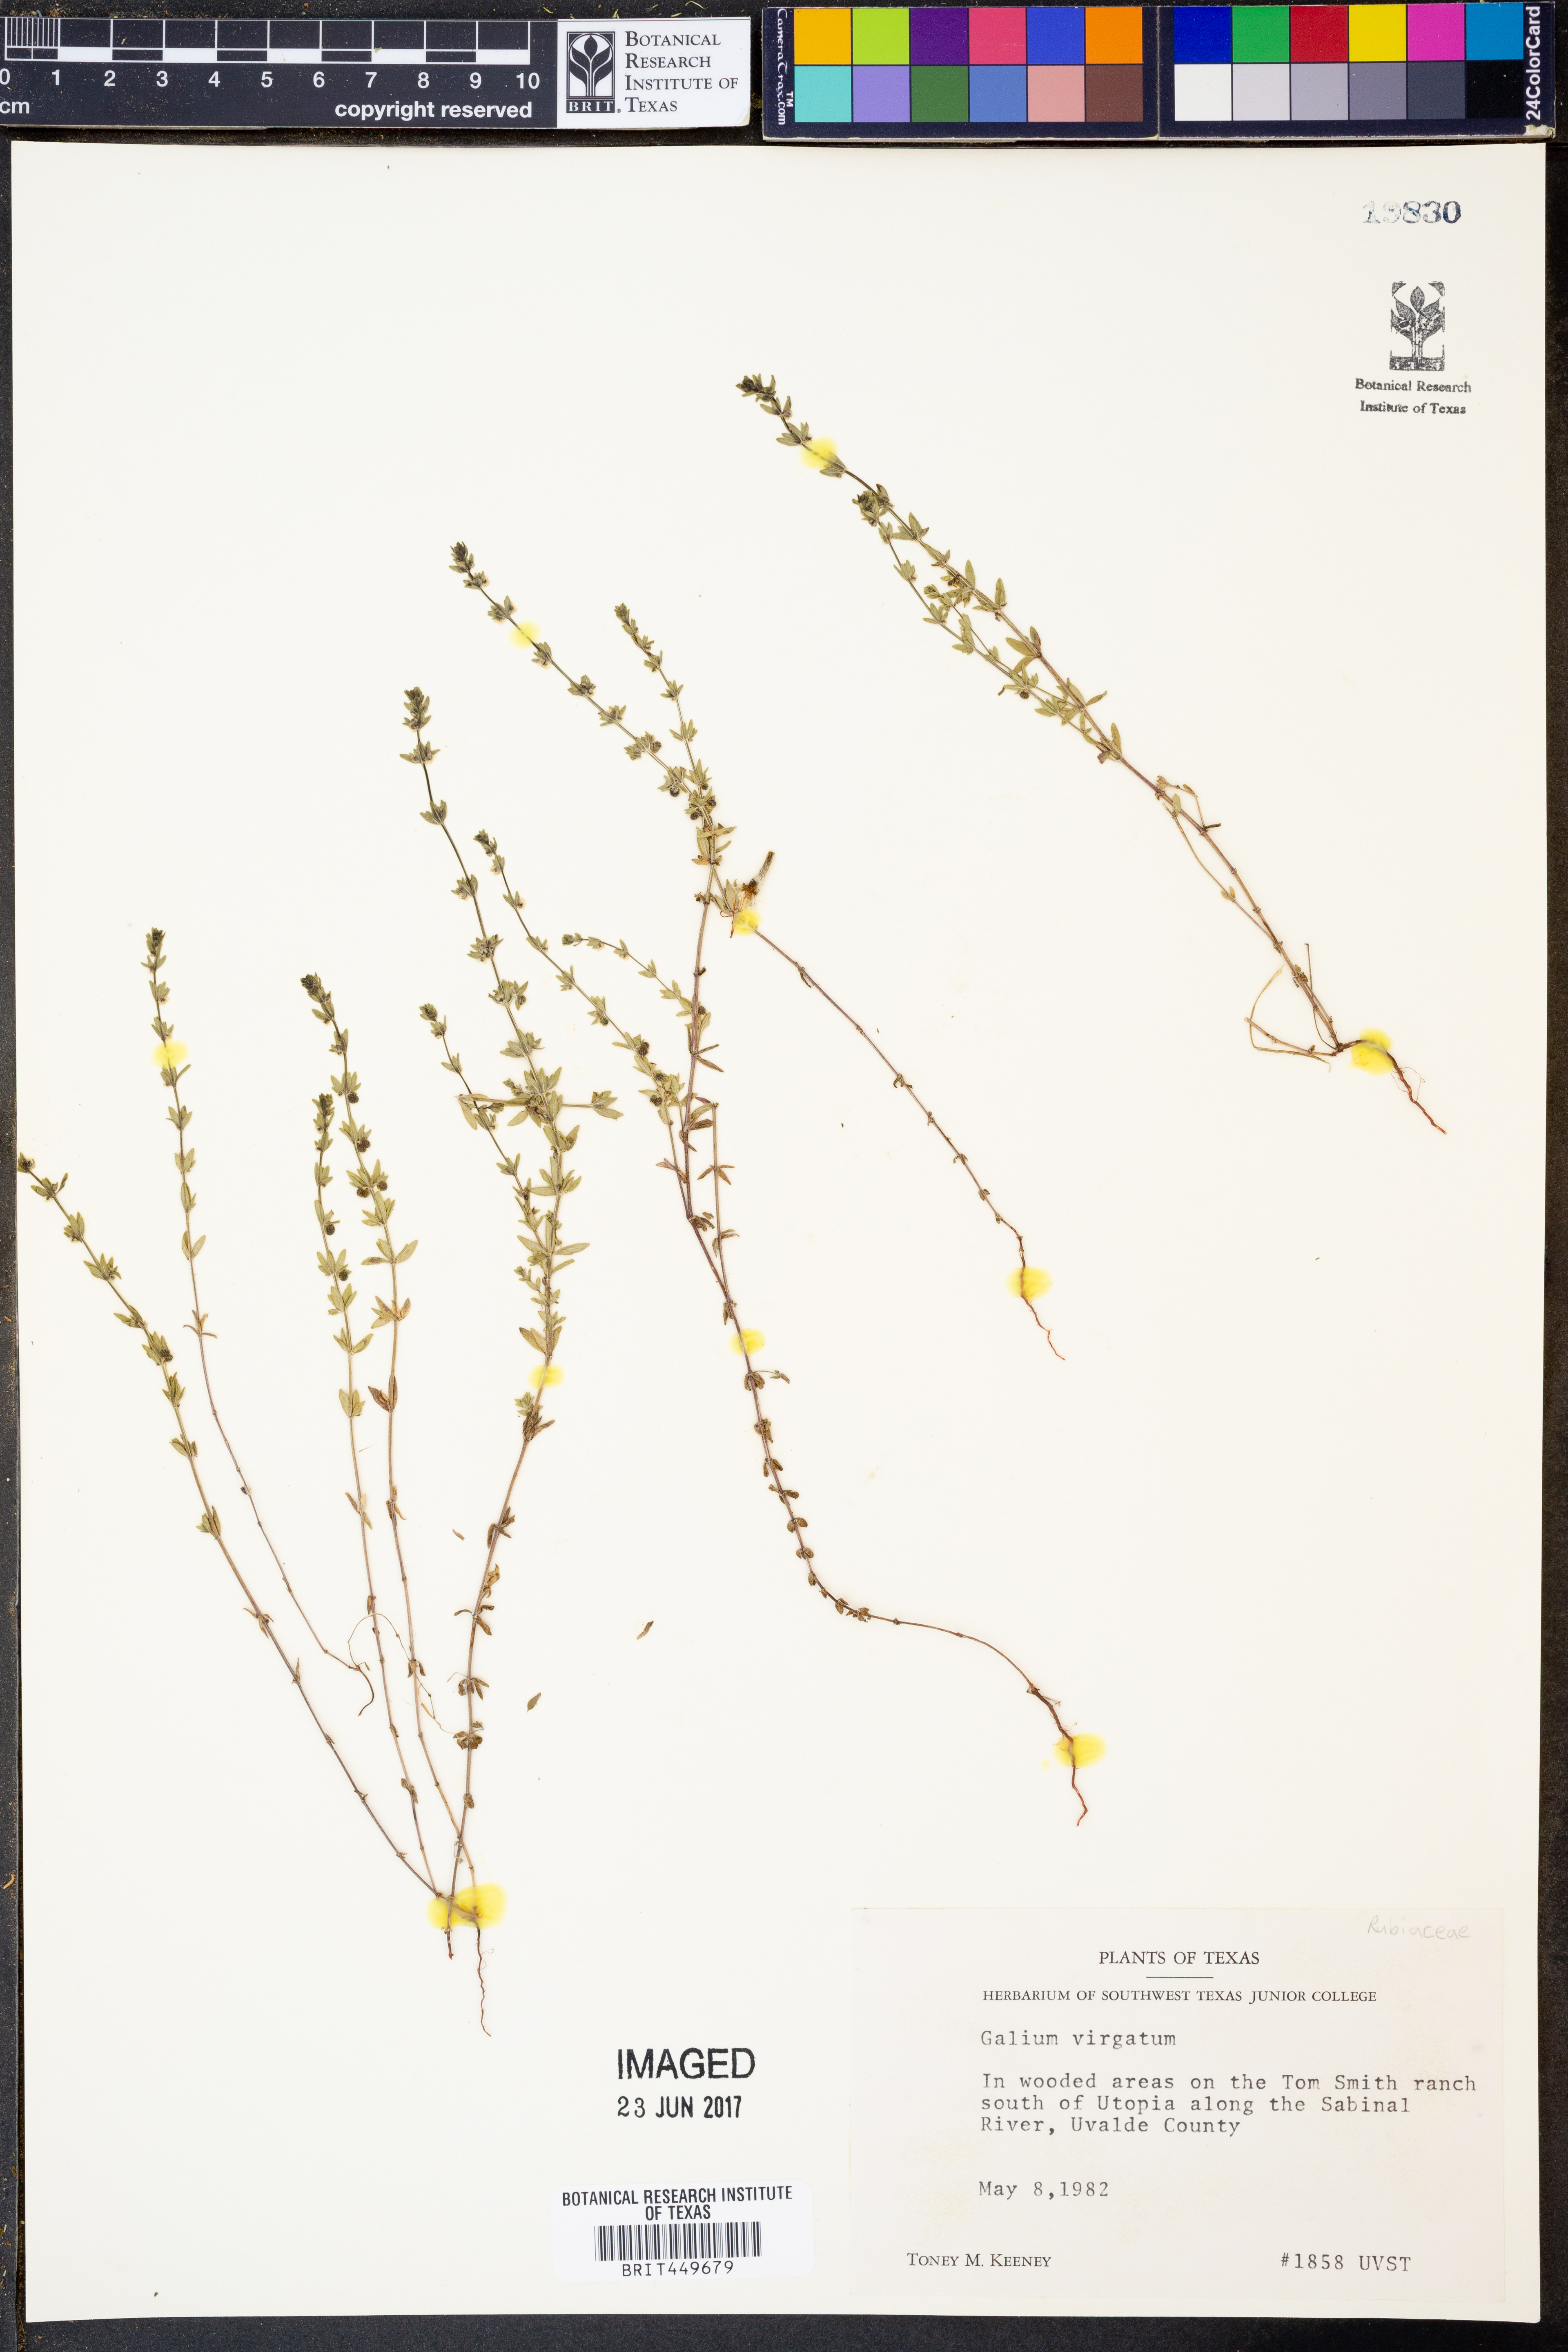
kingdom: Plantae
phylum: Tracheophyta
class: Magnoliopsida
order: Gentianales
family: Rubiaceae
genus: Galium
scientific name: Galium virgatum
